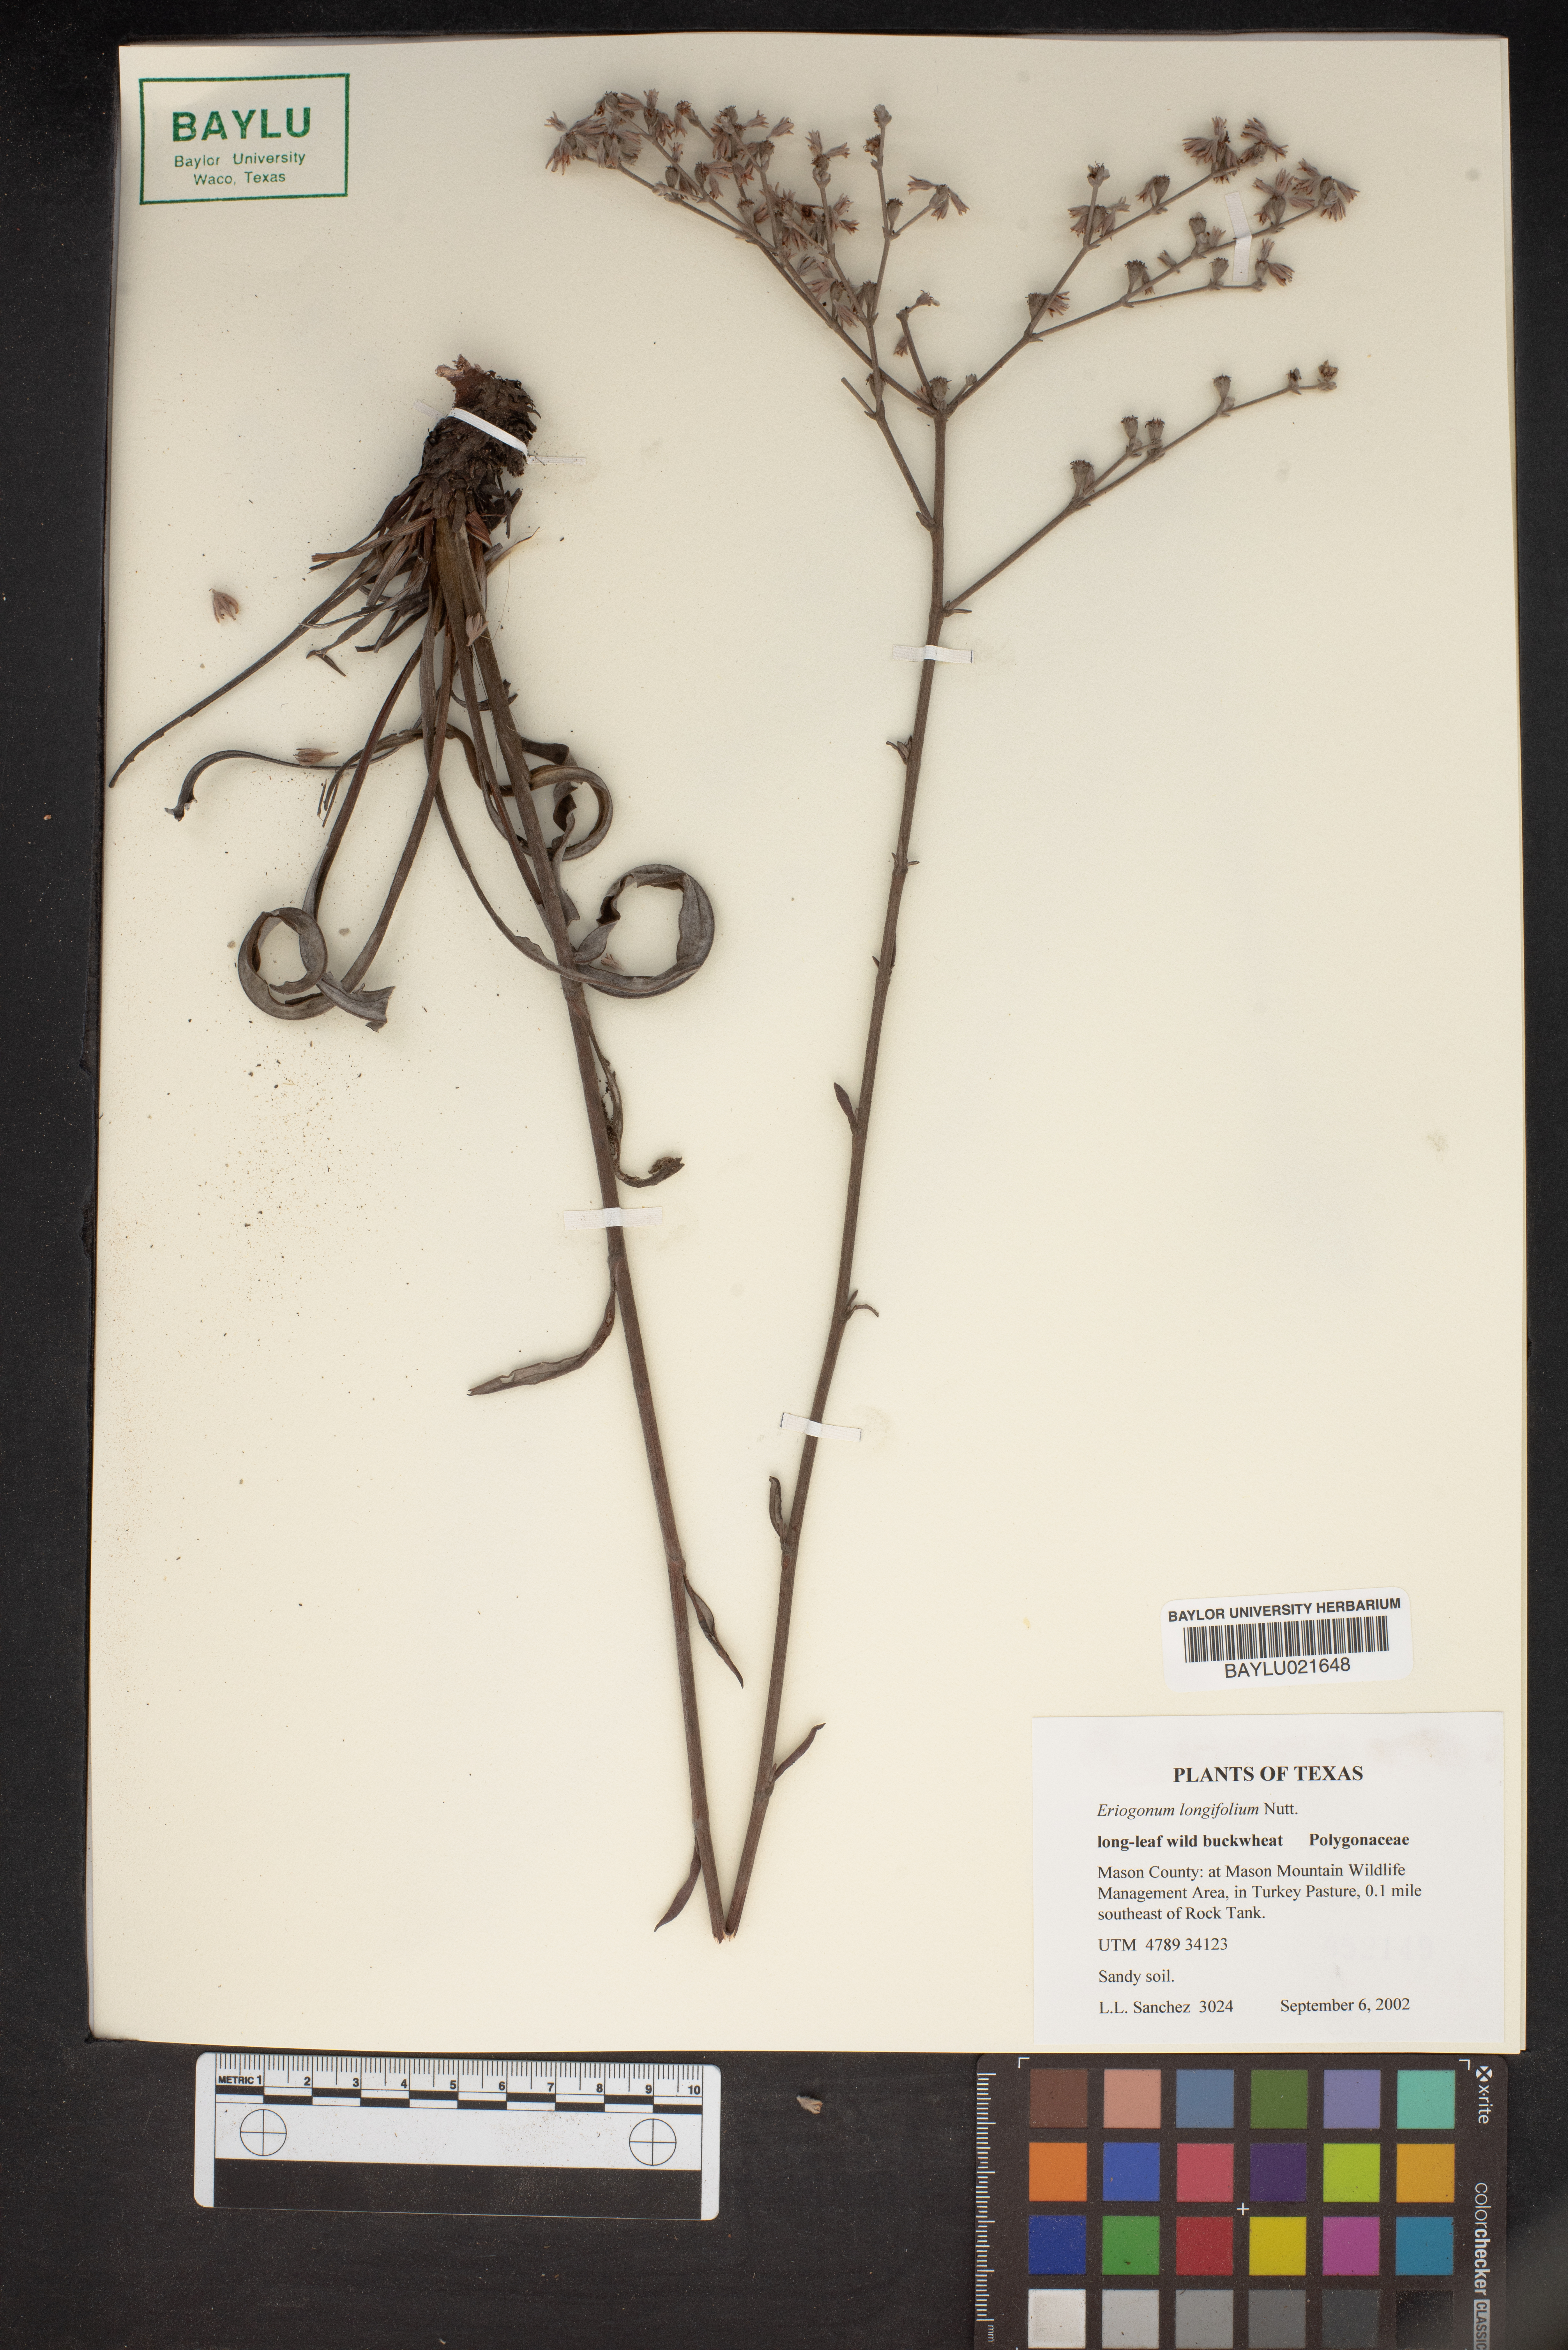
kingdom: Plantae
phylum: Tracheophyta
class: Magnoliopsida
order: Caryophyllales
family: Polygonaceae
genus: Eriogonum
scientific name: Eriogonum longifolium
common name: Longleaf wild buckwheat
